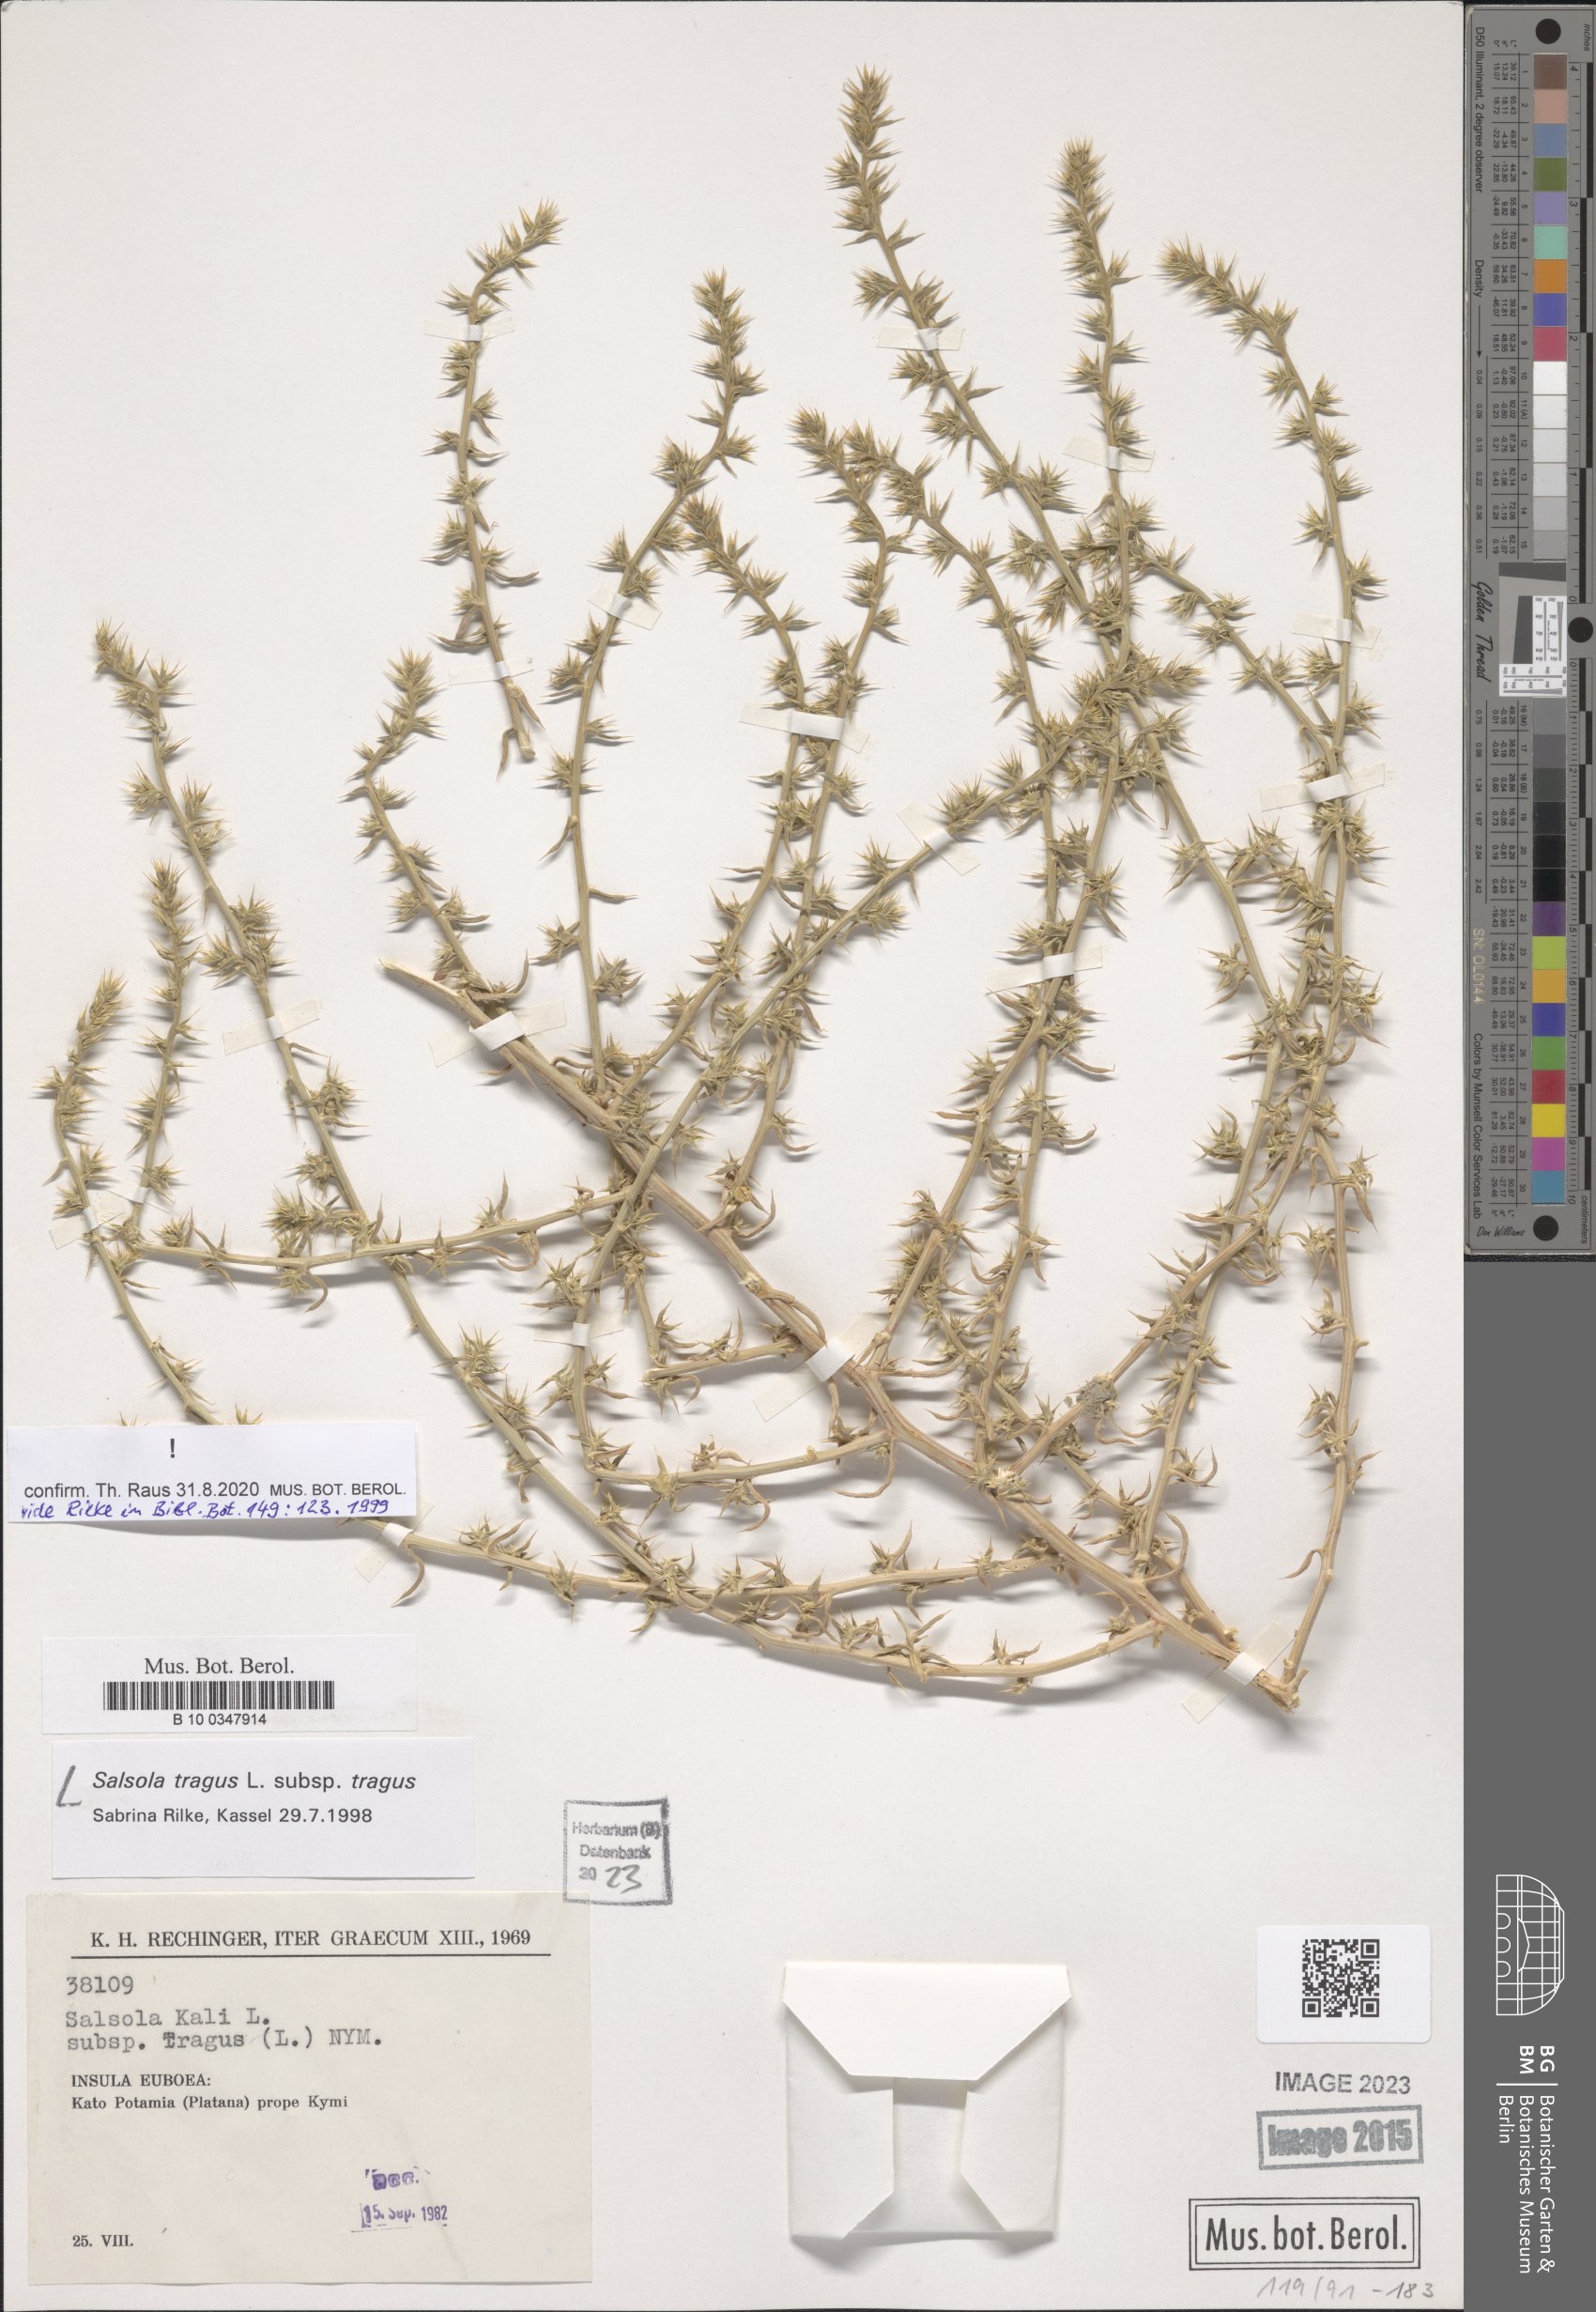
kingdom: Plantae
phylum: Tracheophyta
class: Magnoliopsida
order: Caryophyllales
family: Amaranthaceae
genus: Salsola
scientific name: Salsola tragus
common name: Prickly russian thistle
